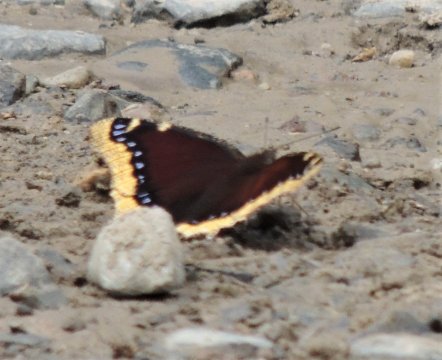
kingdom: Animalia
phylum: Arthropoda
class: Insecta
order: Lepidoptera
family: Nymphalidae
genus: Nymphalis
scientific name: Nymphalis antiopa
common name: Mourning Cloak
